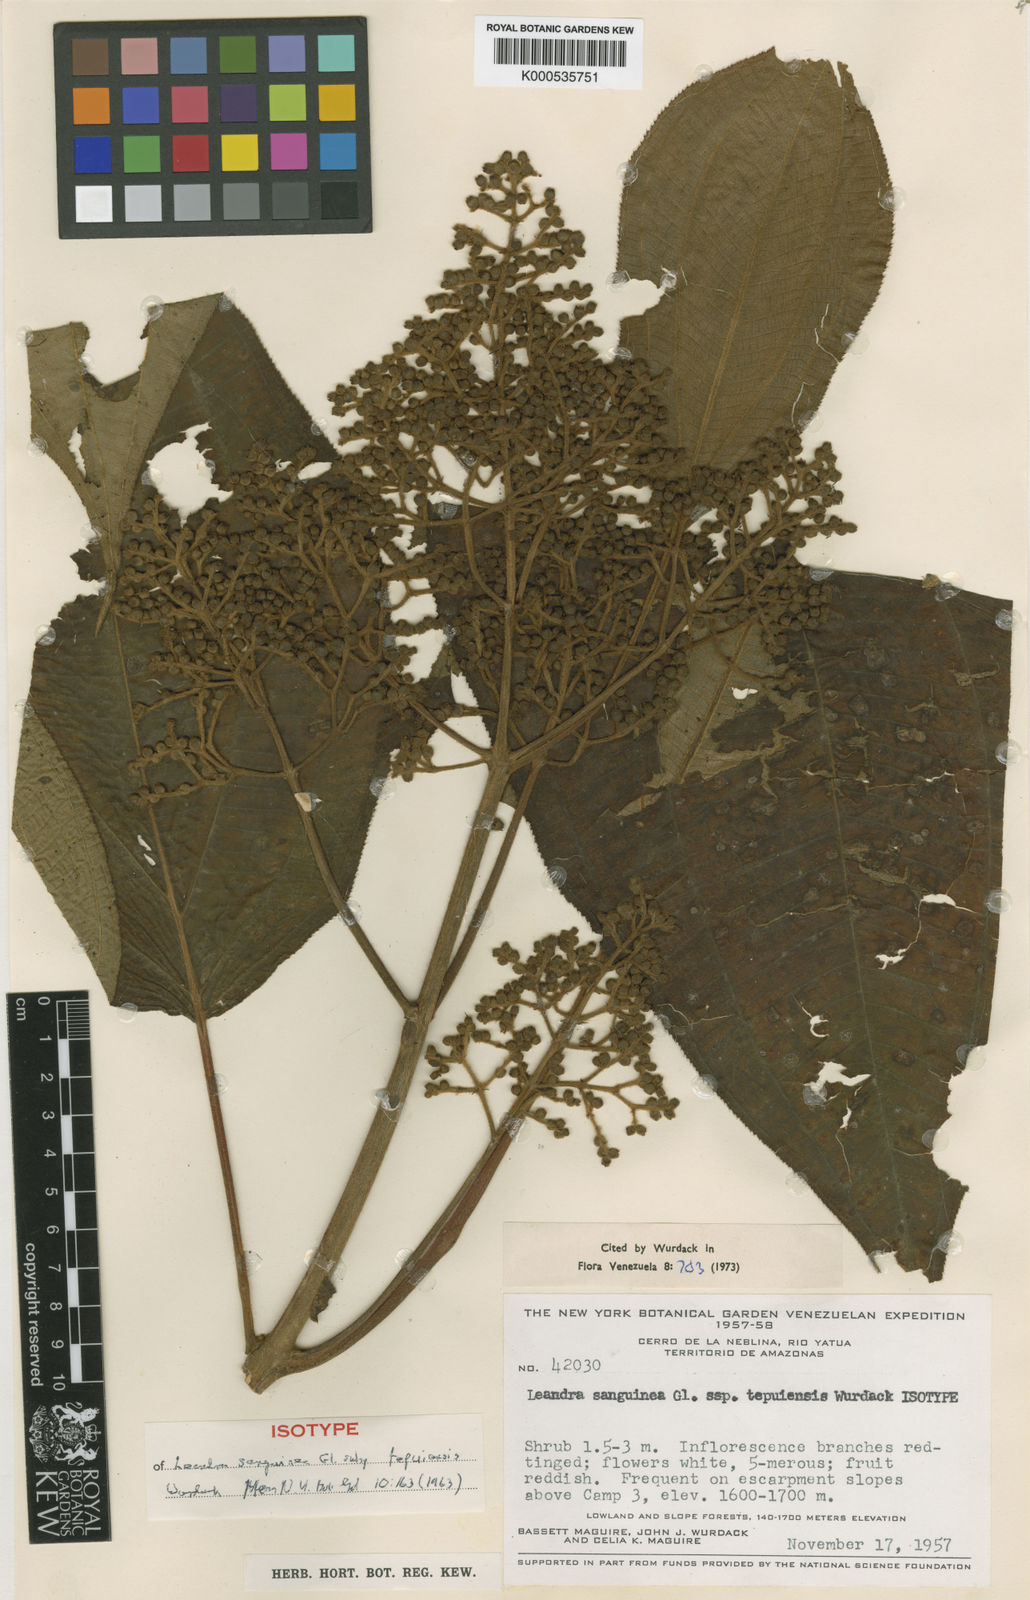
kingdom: Plantae
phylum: Tracheophyta
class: Magnoliopsida
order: Myrtales
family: Melastomataceae
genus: Miconia
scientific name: Miconia secunsanguinea
